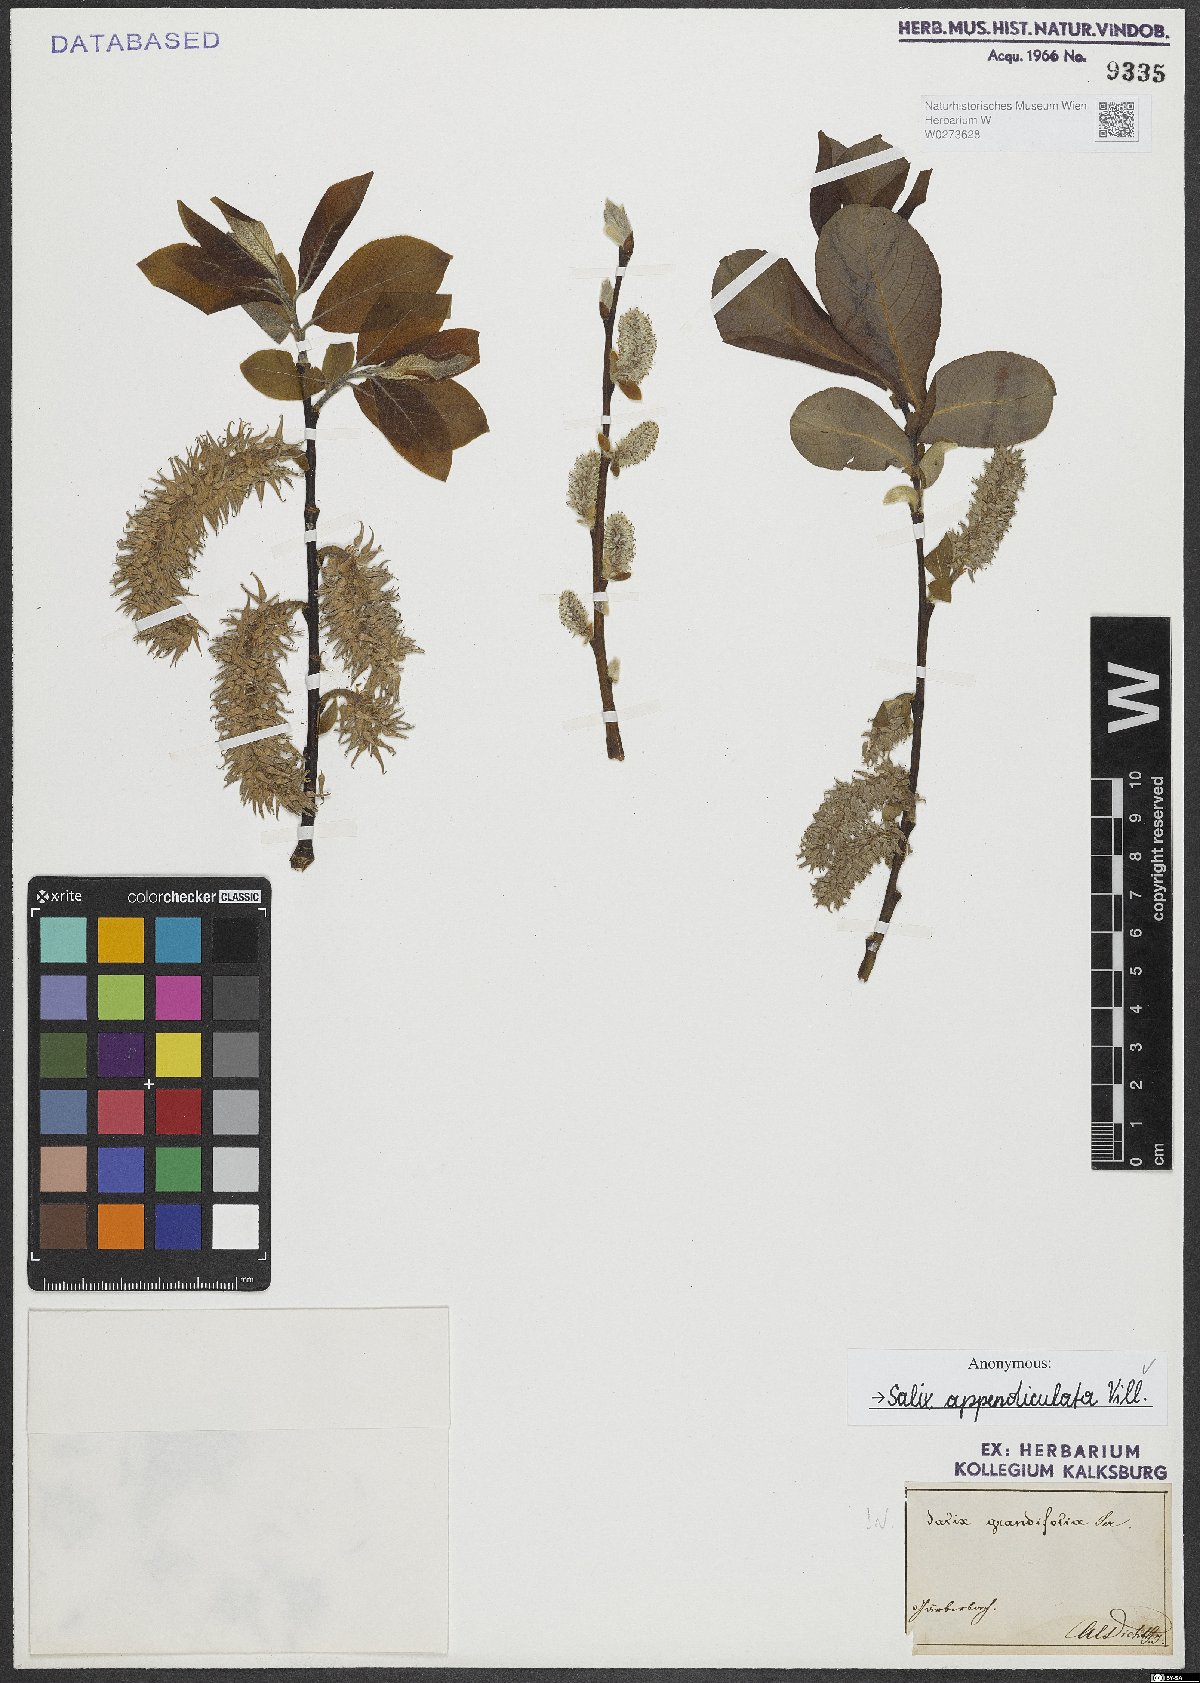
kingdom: Plantae
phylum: Tracheophyta
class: Magnoliopsida
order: Malpighiales
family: Salicaceae
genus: Salix
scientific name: Salix appendiculata
